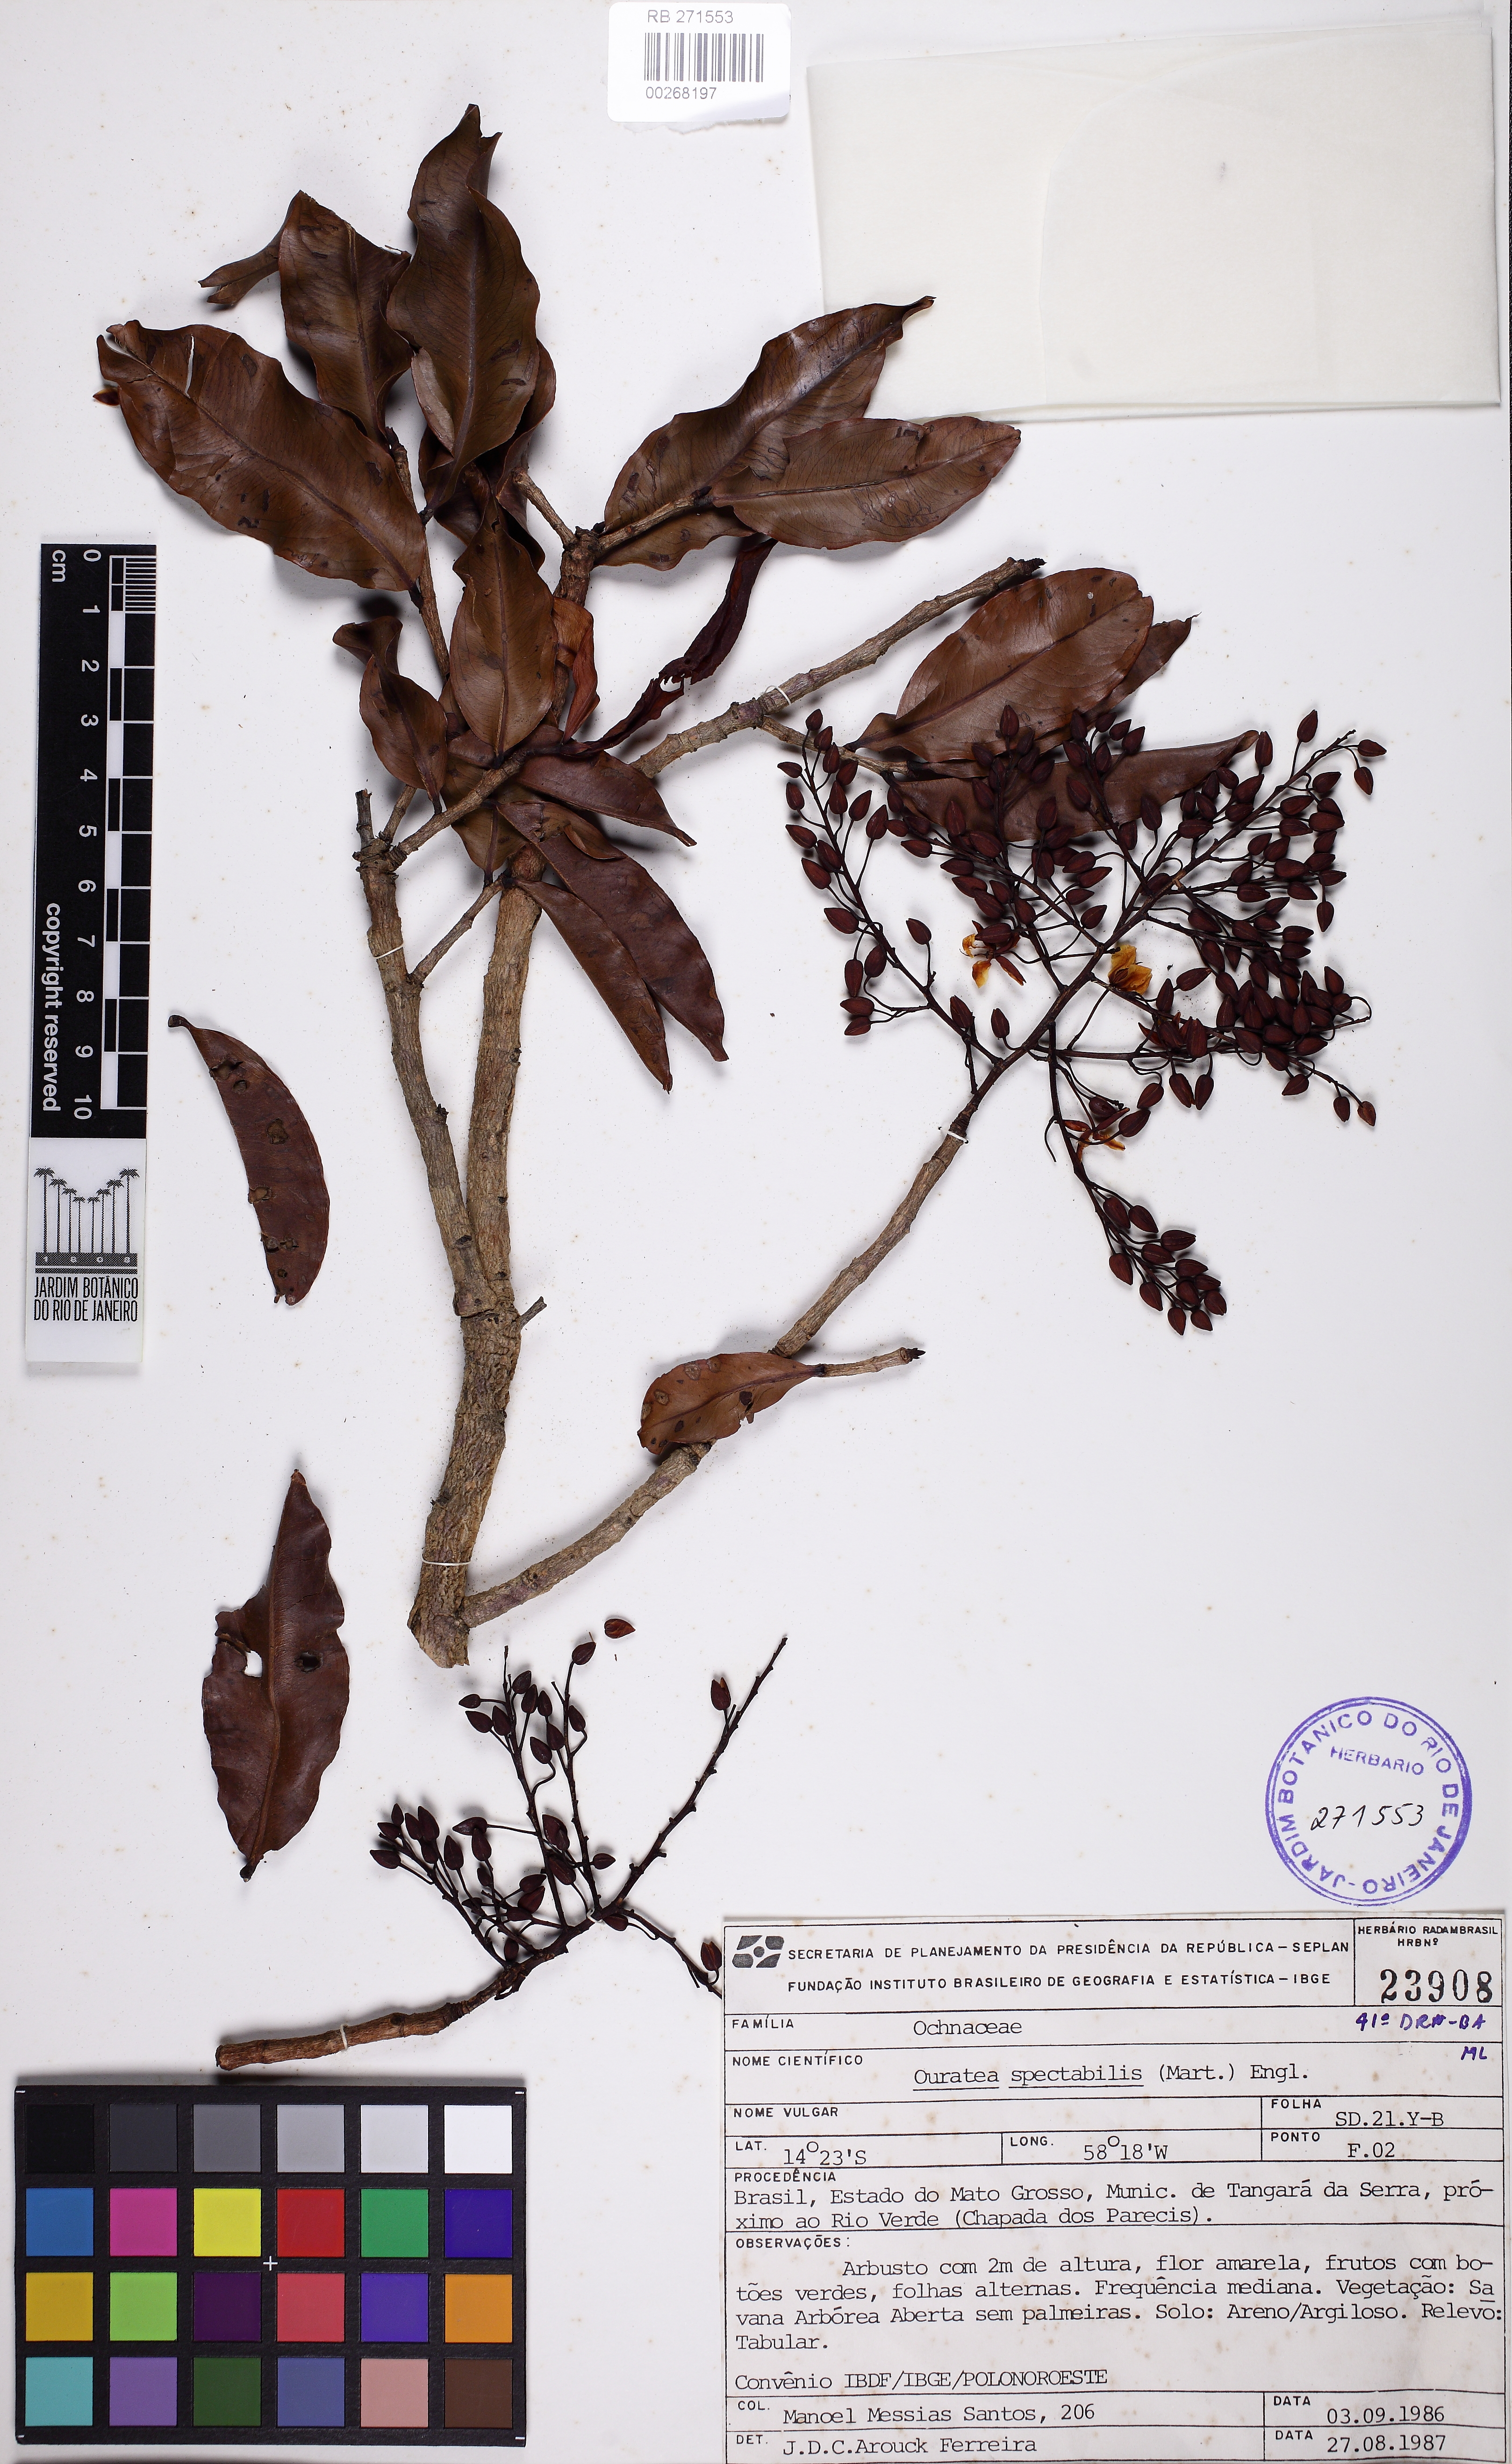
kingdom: Plantae
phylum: Tracheophyta
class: Magnoliopsida
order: Malpighiales
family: Ochnaceae
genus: Ouratea
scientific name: Ouratea spectabilis
